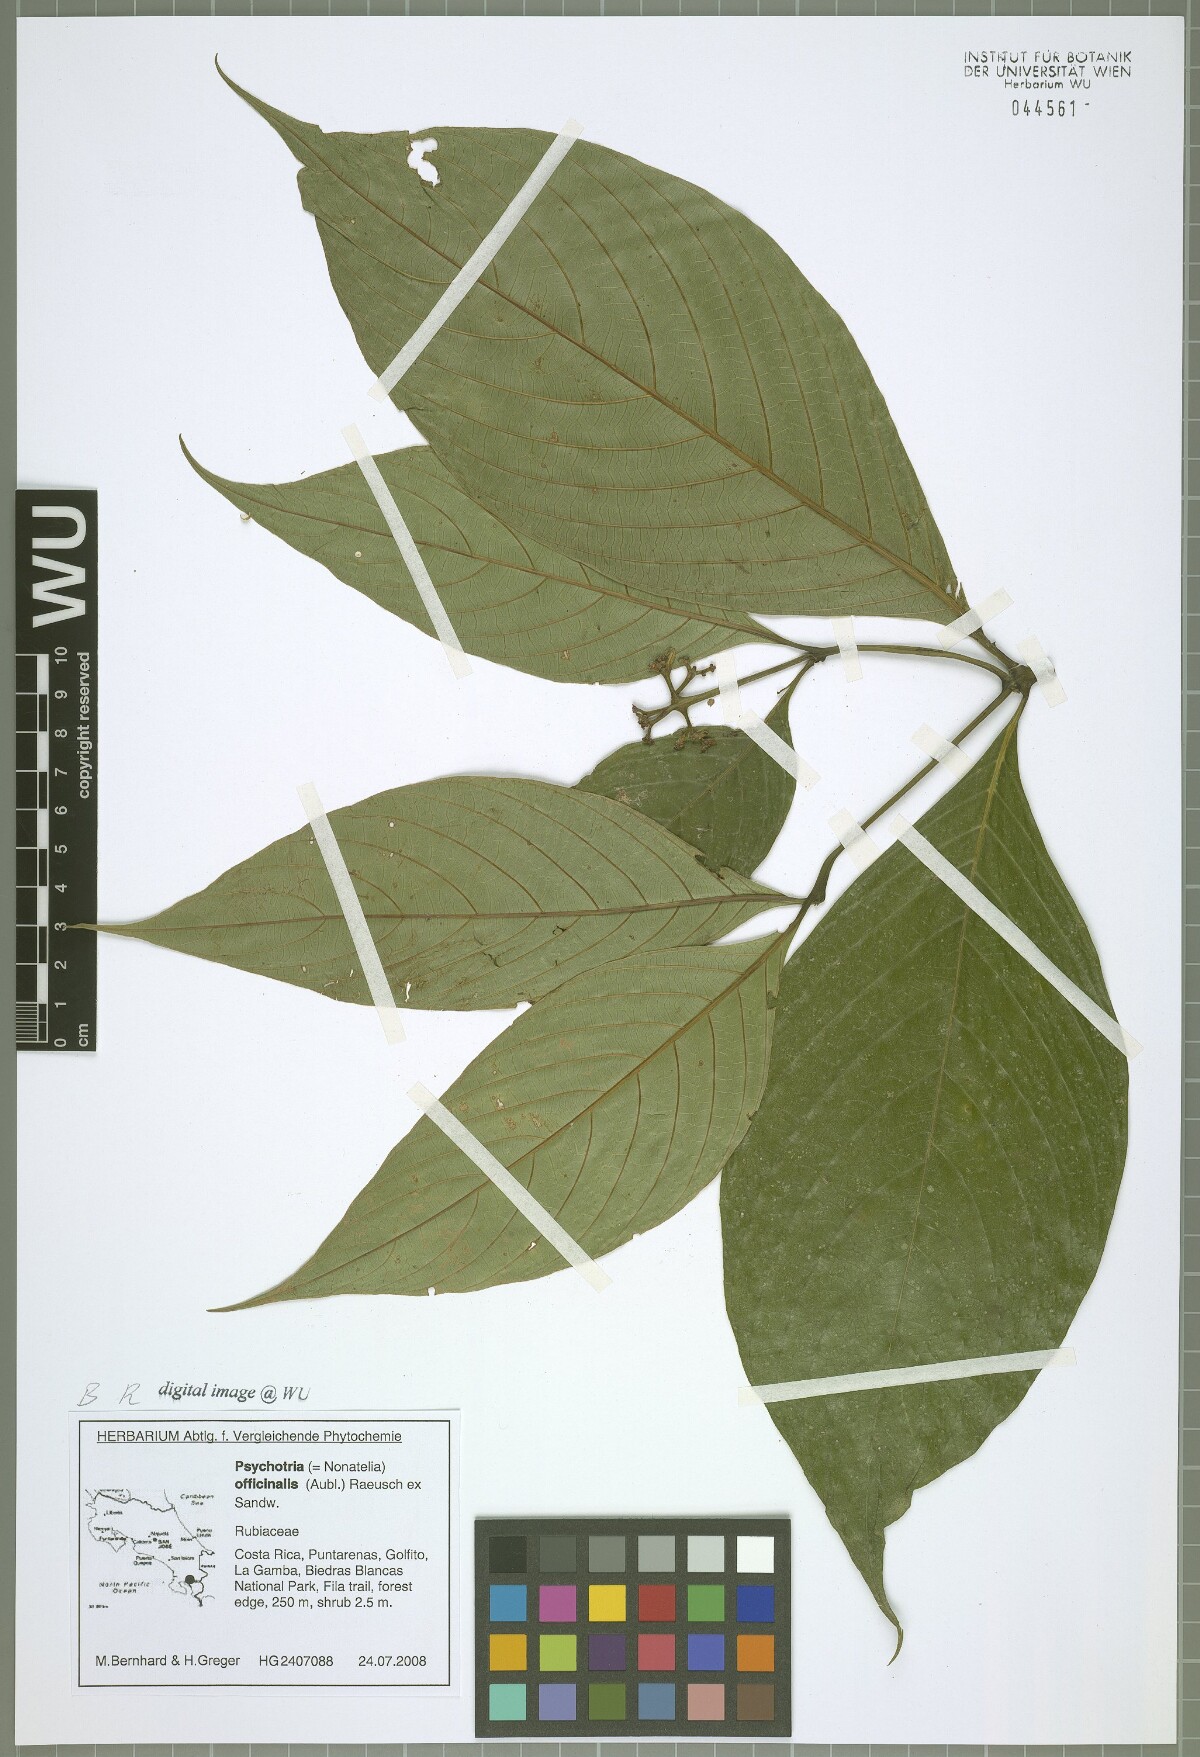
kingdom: Plantae
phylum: Tracheophyta
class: Magnoliopsida
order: Gentianales
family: Rubiaceae
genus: Palicourea
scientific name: Palicourea winkleri
